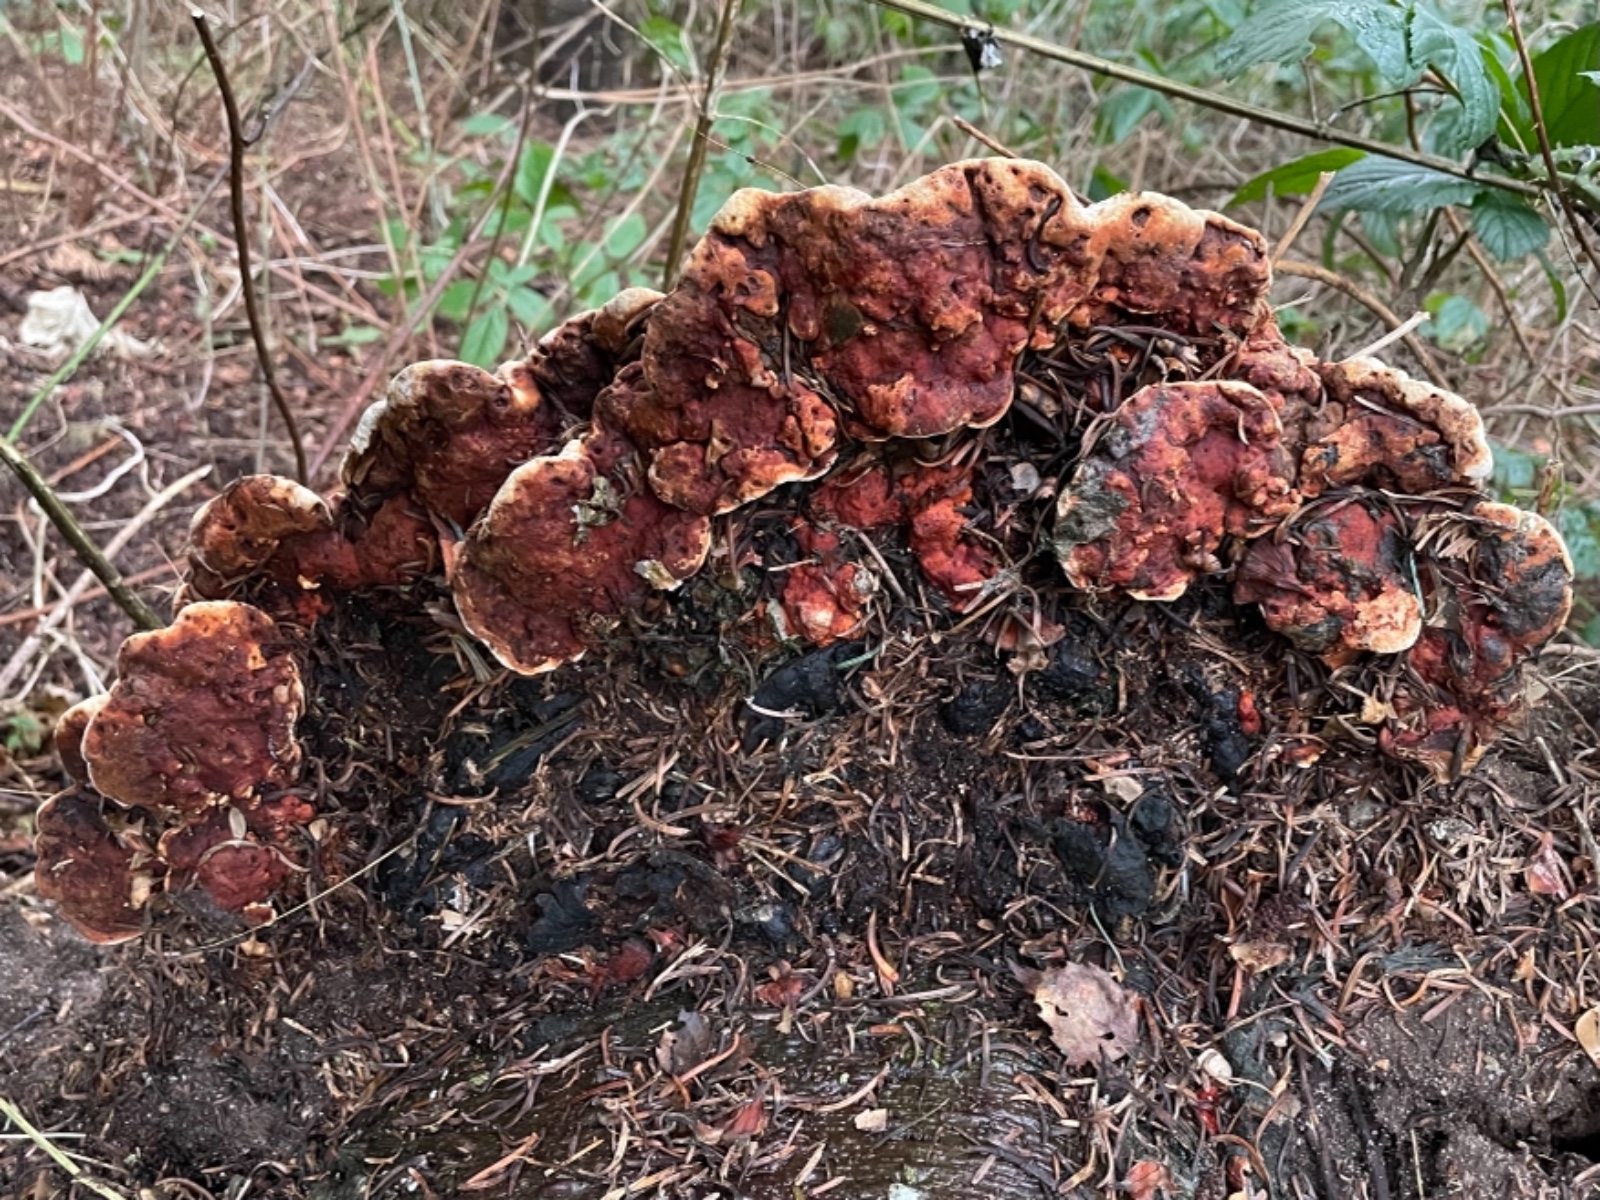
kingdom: Fungi
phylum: Basidiomycota
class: Agaricomycetes
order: Russulales
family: Bondarzewiaceae
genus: Heterobasidion
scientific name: Heterobasidion annosum
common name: almindelig rodfordærver
